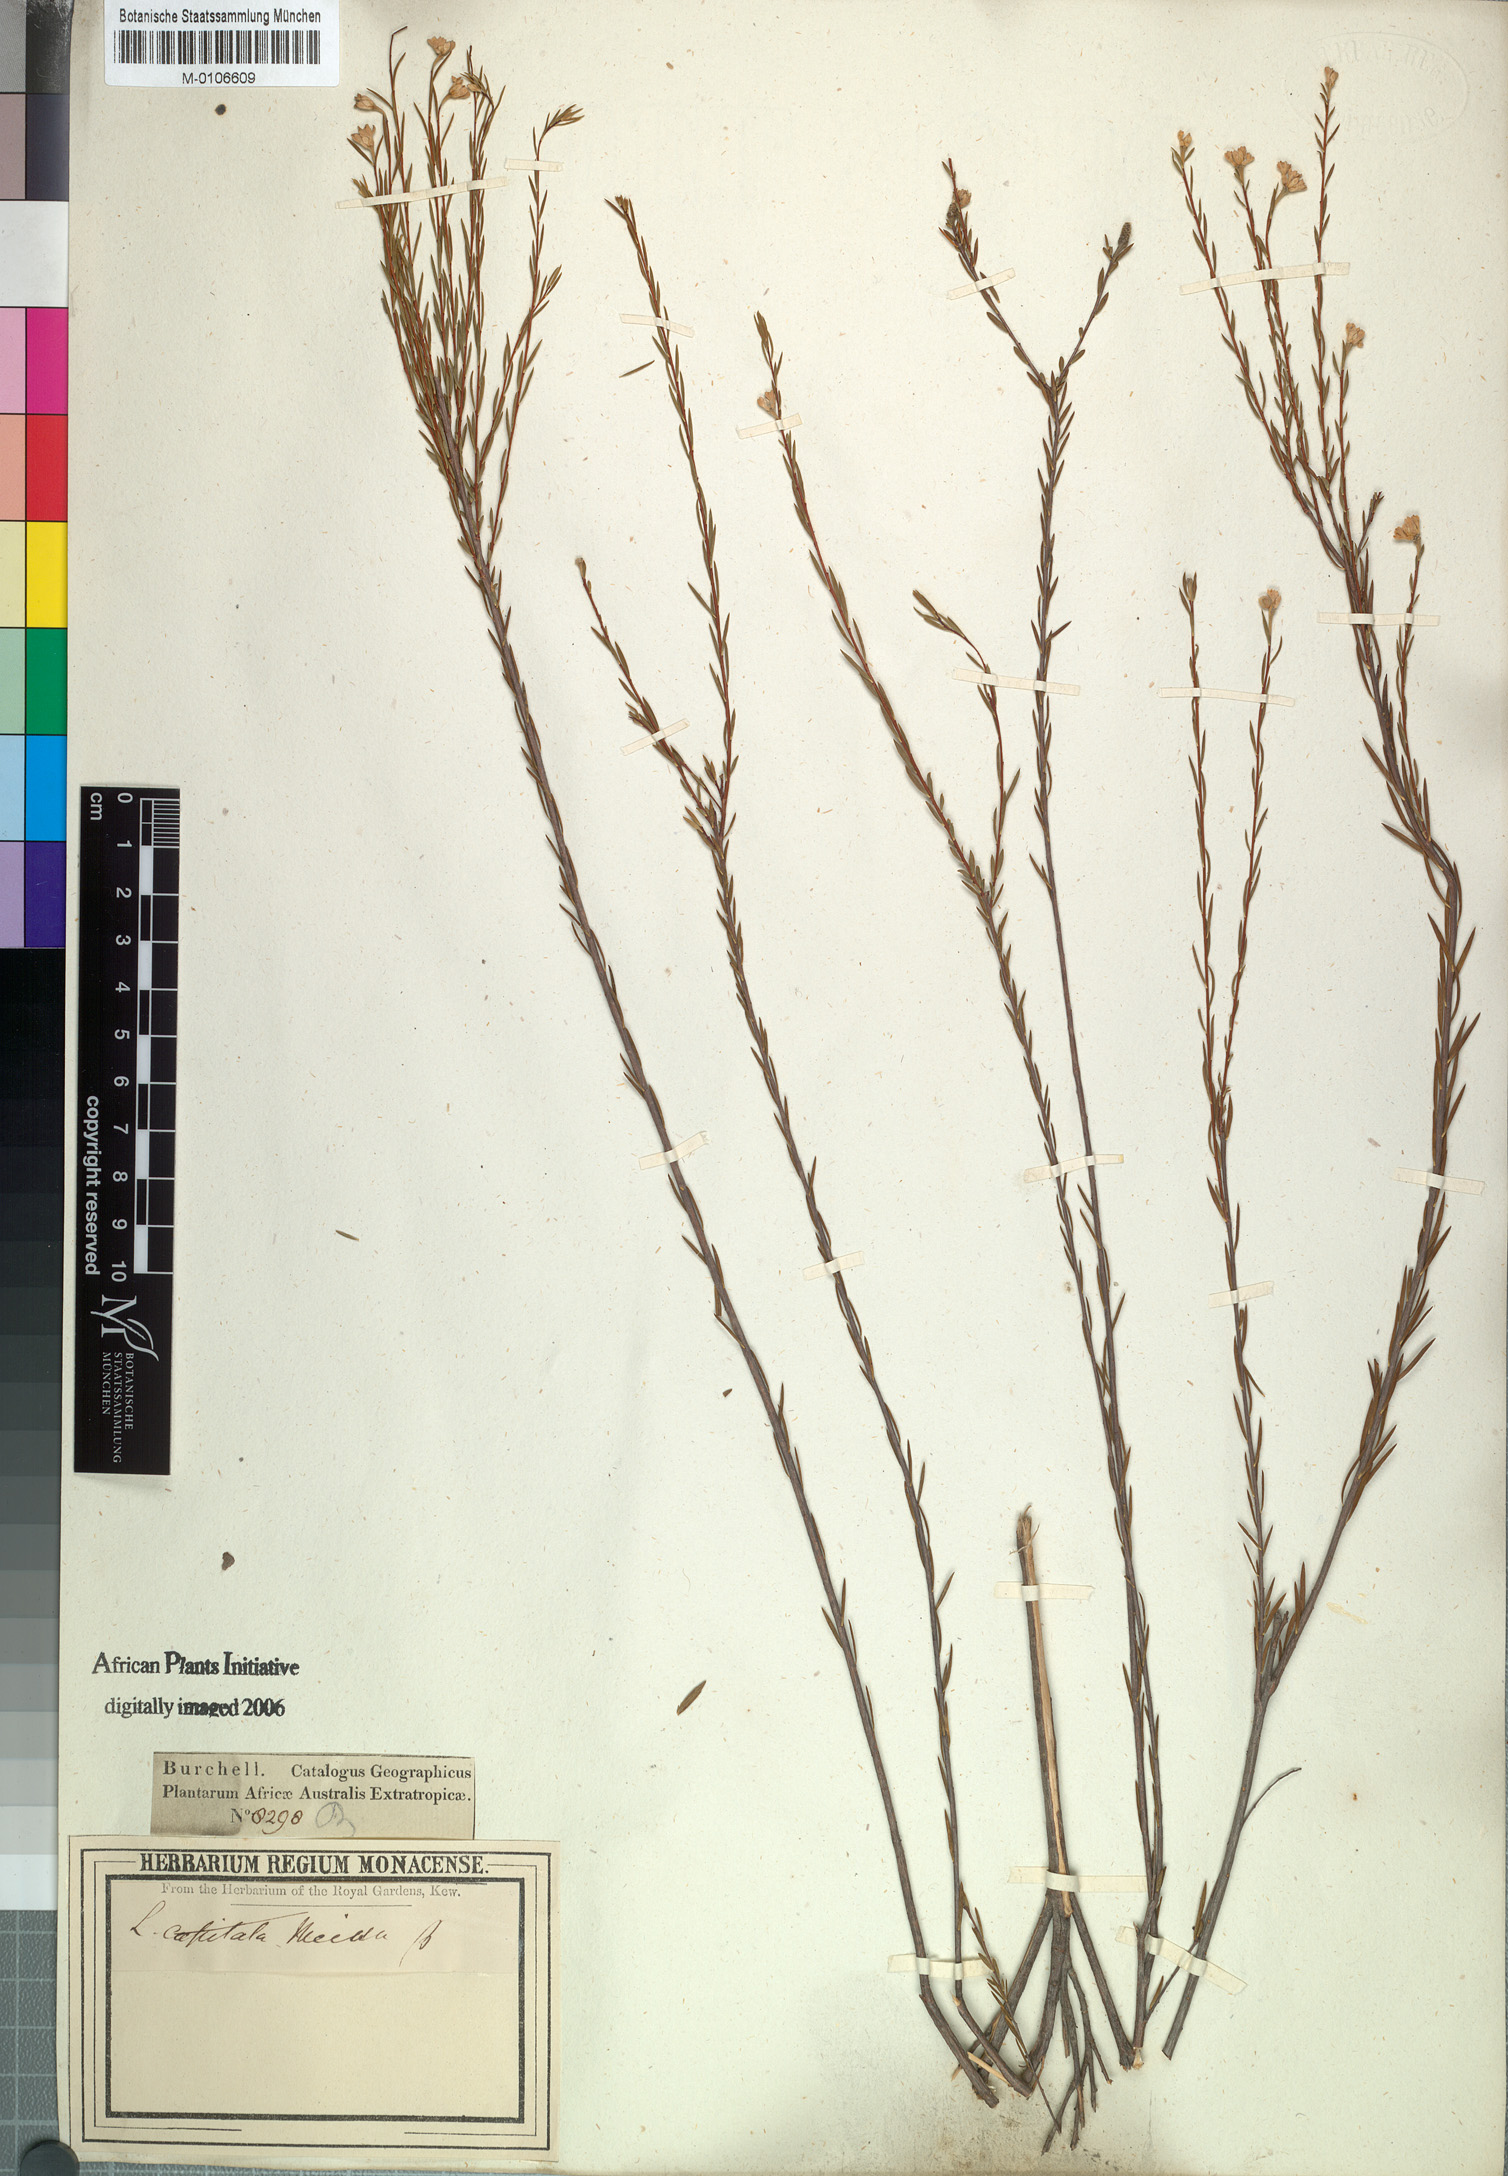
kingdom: Plantae
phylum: Tracheophyta
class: Magnoliopsida
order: Malvales
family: Thymelaeaceae
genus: Lachnaea
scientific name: Lachnaea capitata
